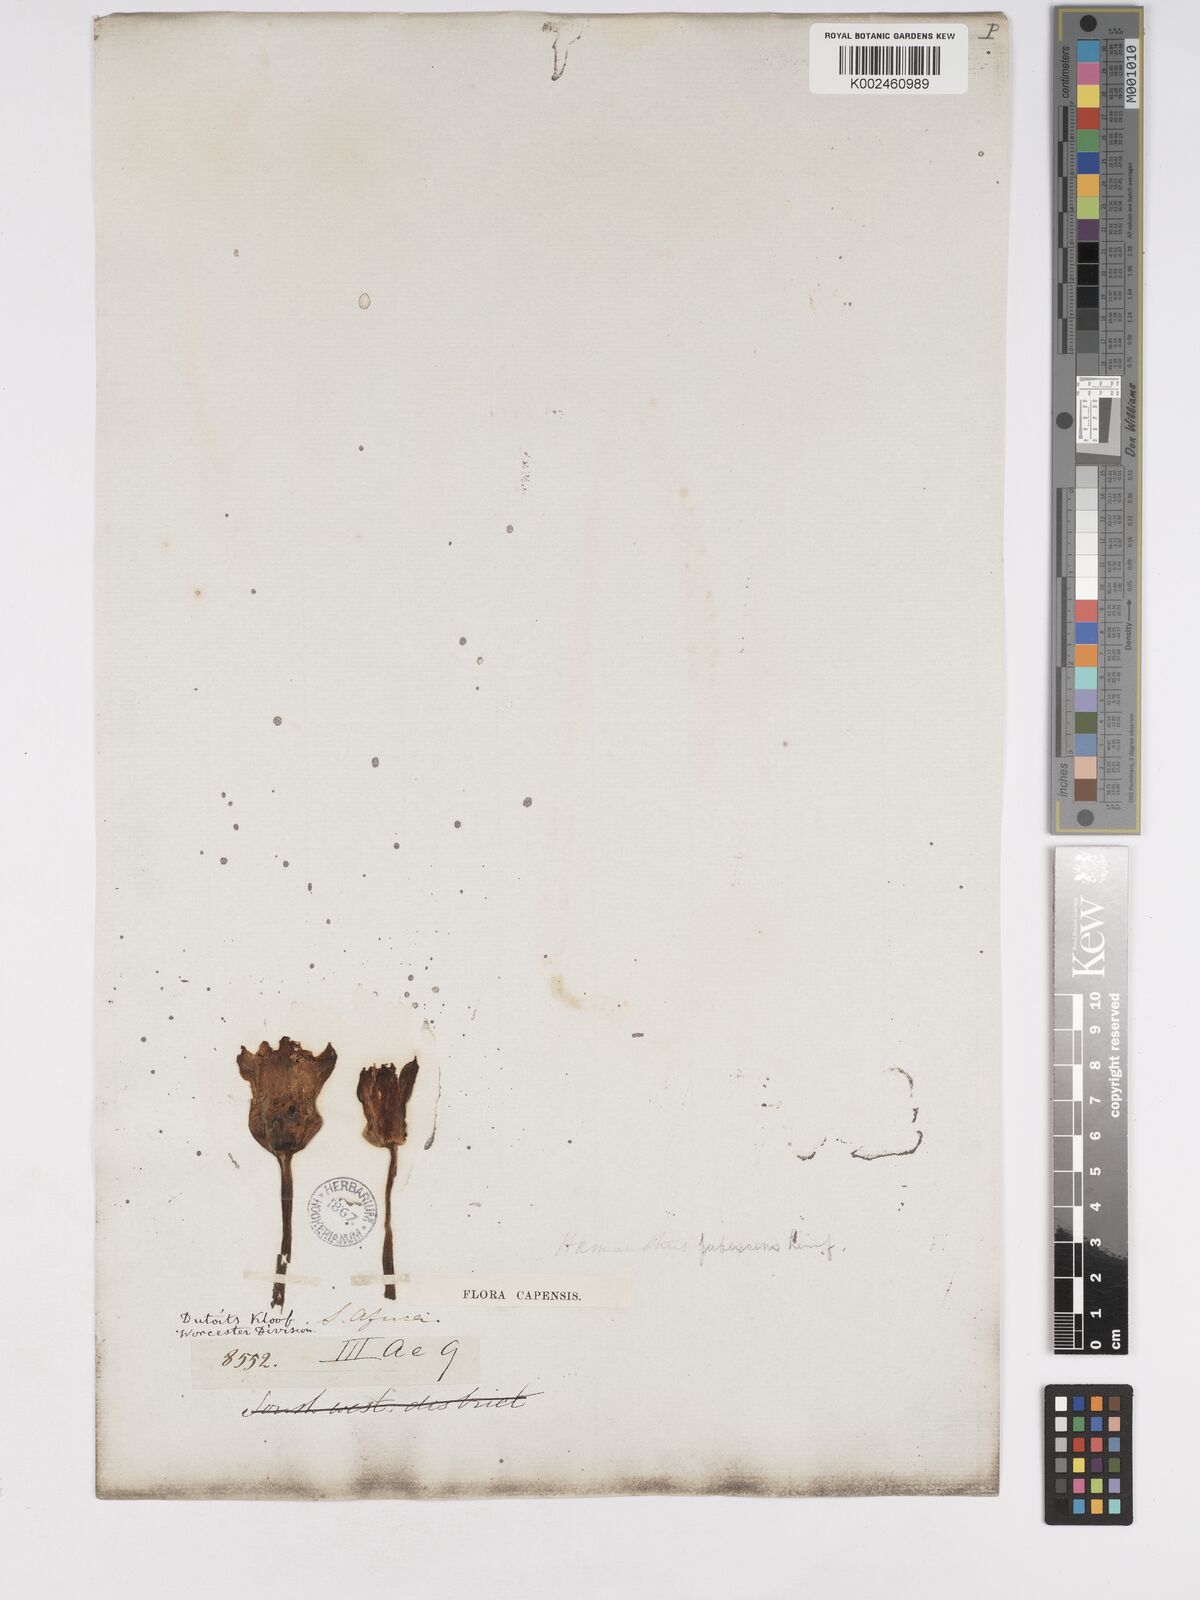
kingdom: Plantae
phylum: Tracheophyta
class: Liliopsida
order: Asparagales
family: Amaryllidaceae
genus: Haemanthus
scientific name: Haemanthus pubescens
